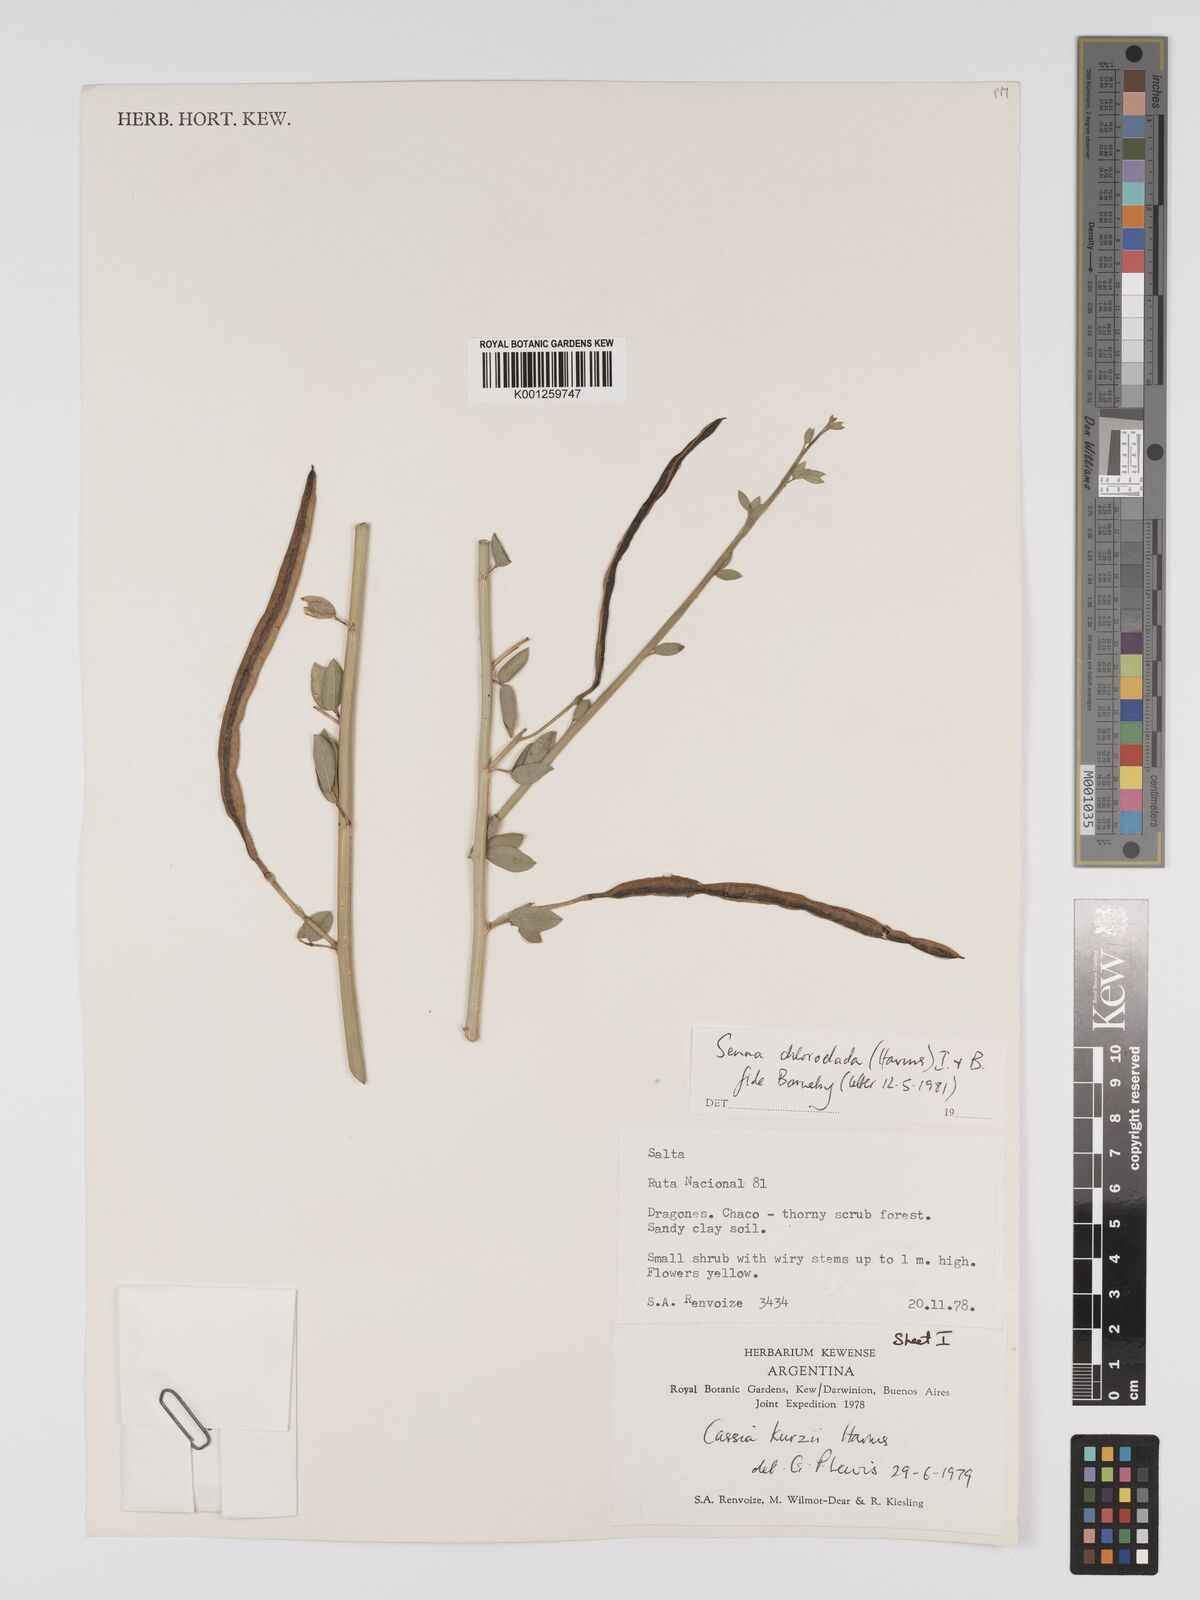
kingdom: Plantae
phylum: Tracheophyta
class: Magnoliopsida
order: Fabales
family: Fabaceae
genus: Senna
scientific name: Senna chloroclada
